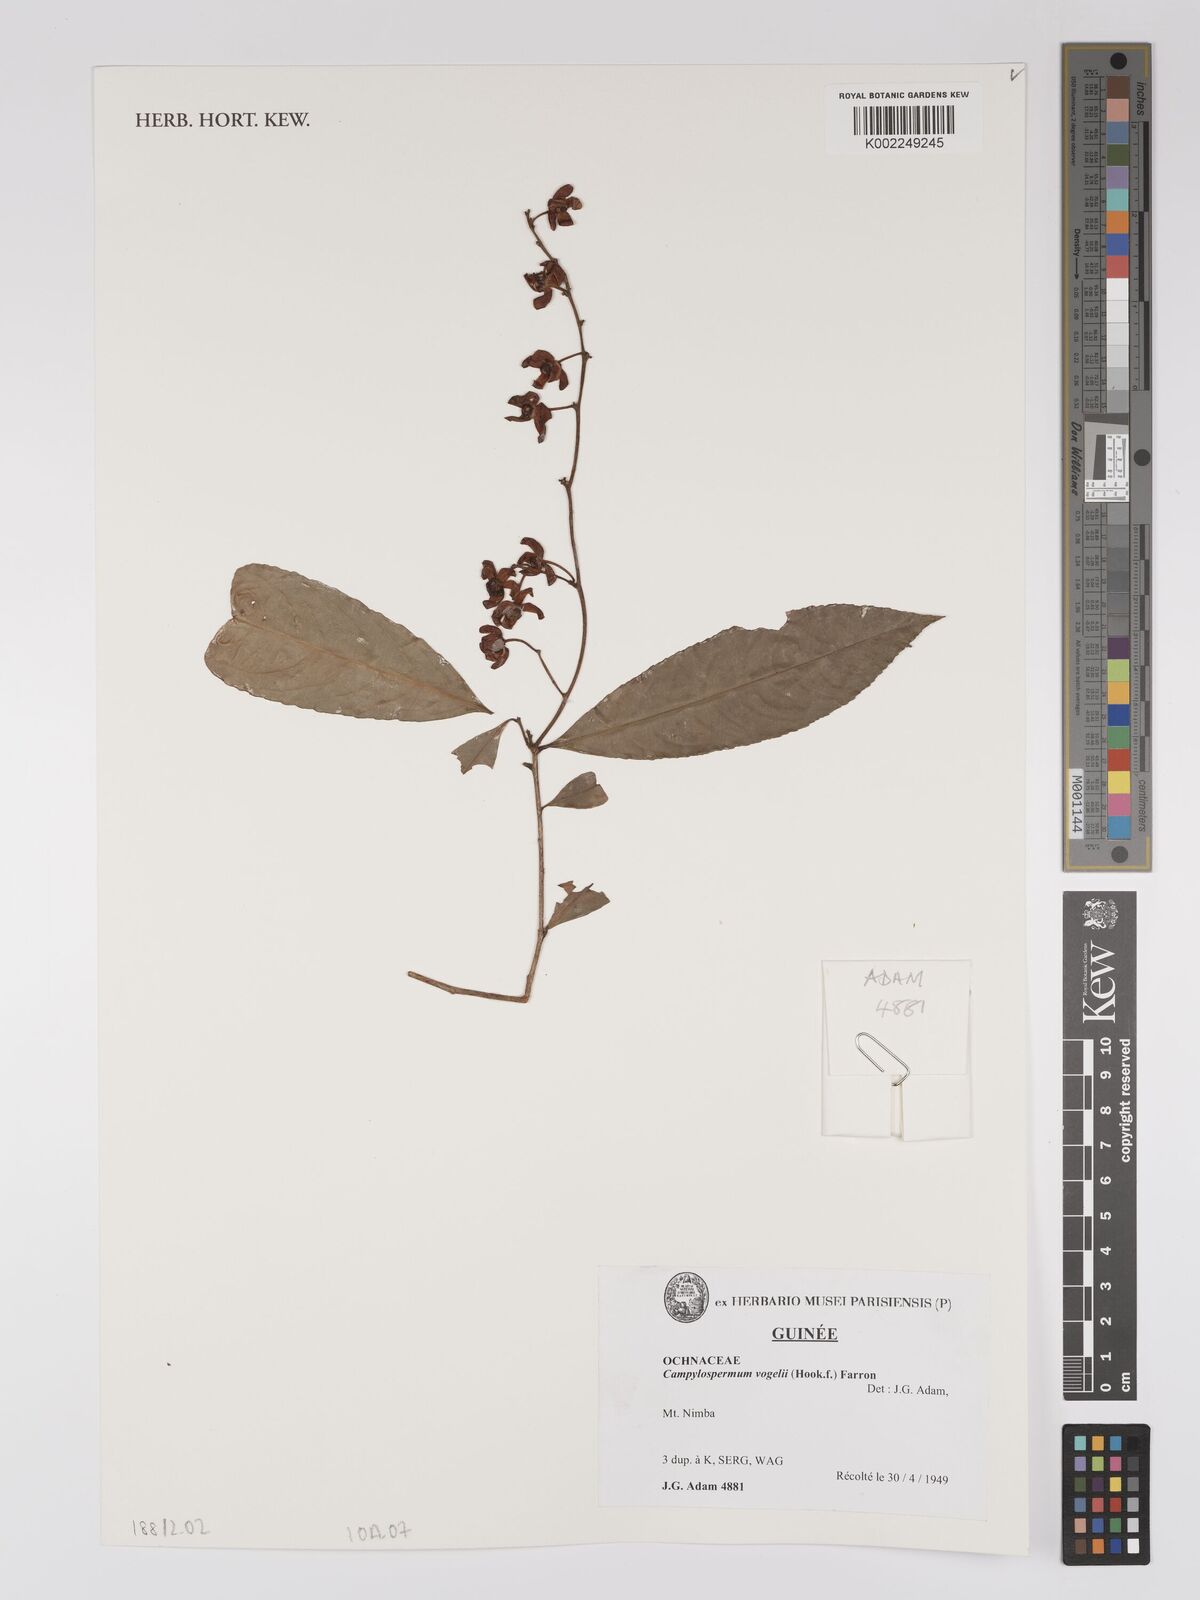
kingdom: Plantae
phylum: Tracheophyta
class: Magnoliopsida
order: Malpighiales
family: Ochnaceae
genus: Campylospermum
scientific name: Campylospermum vogelii
